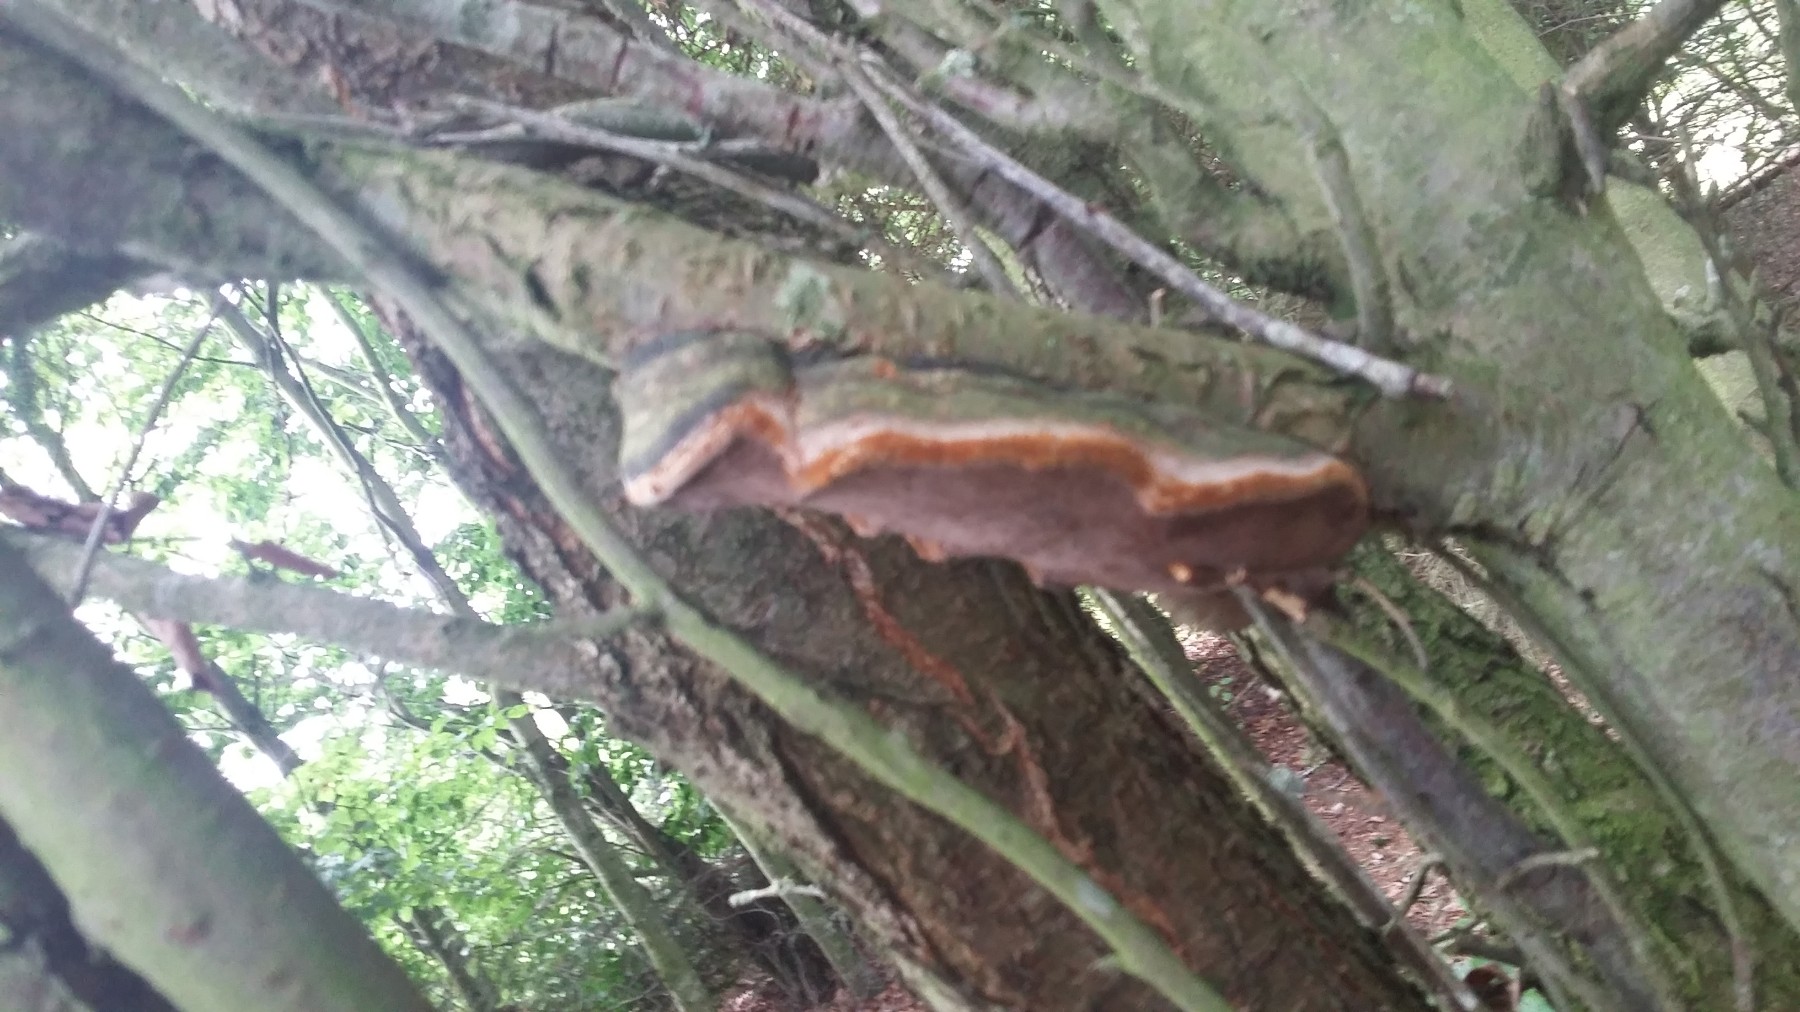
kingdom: Fungi
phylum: Basidiomycota
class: Agaricomycetes
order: Hymenochaetales
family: Hymenochaetaceae
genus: Phellinus
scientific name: Phellinus pomaceus
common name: blomme-ildporesvamp
